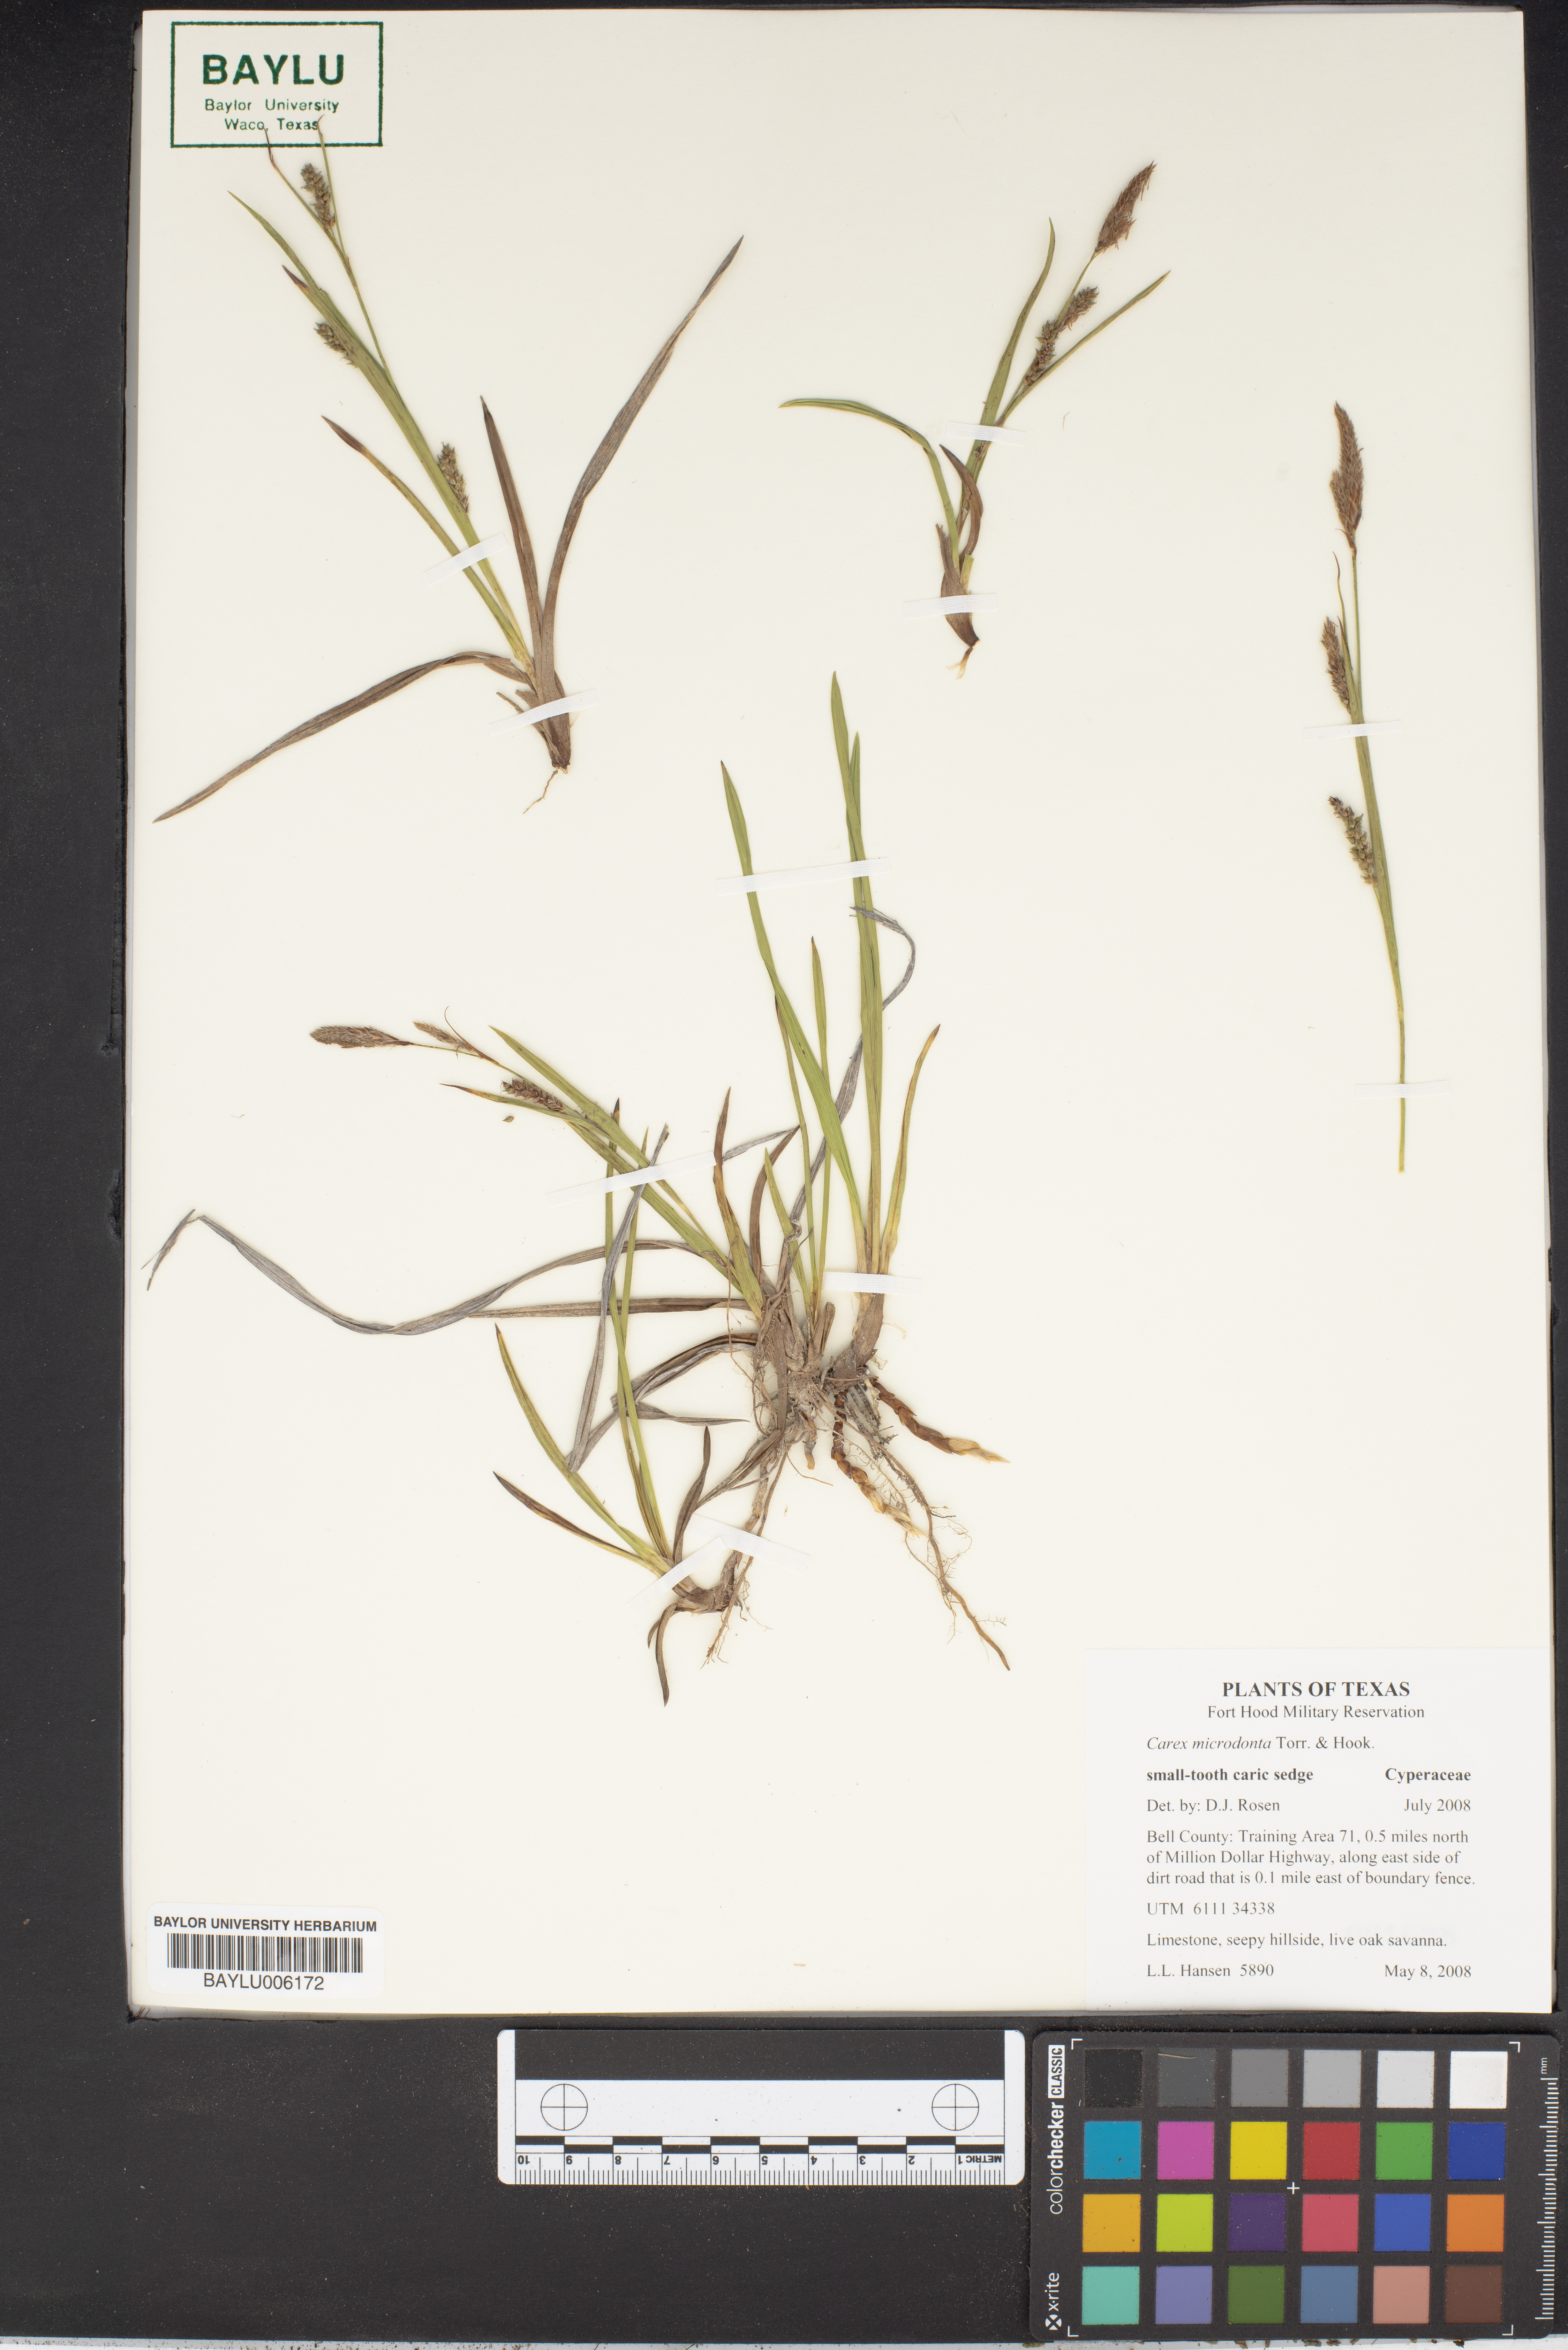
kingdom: Plantae
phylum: Tracheophyta
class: Liliopsida
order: Poales
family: Cyperaceae
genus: Carex
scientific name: Carex microdonta
